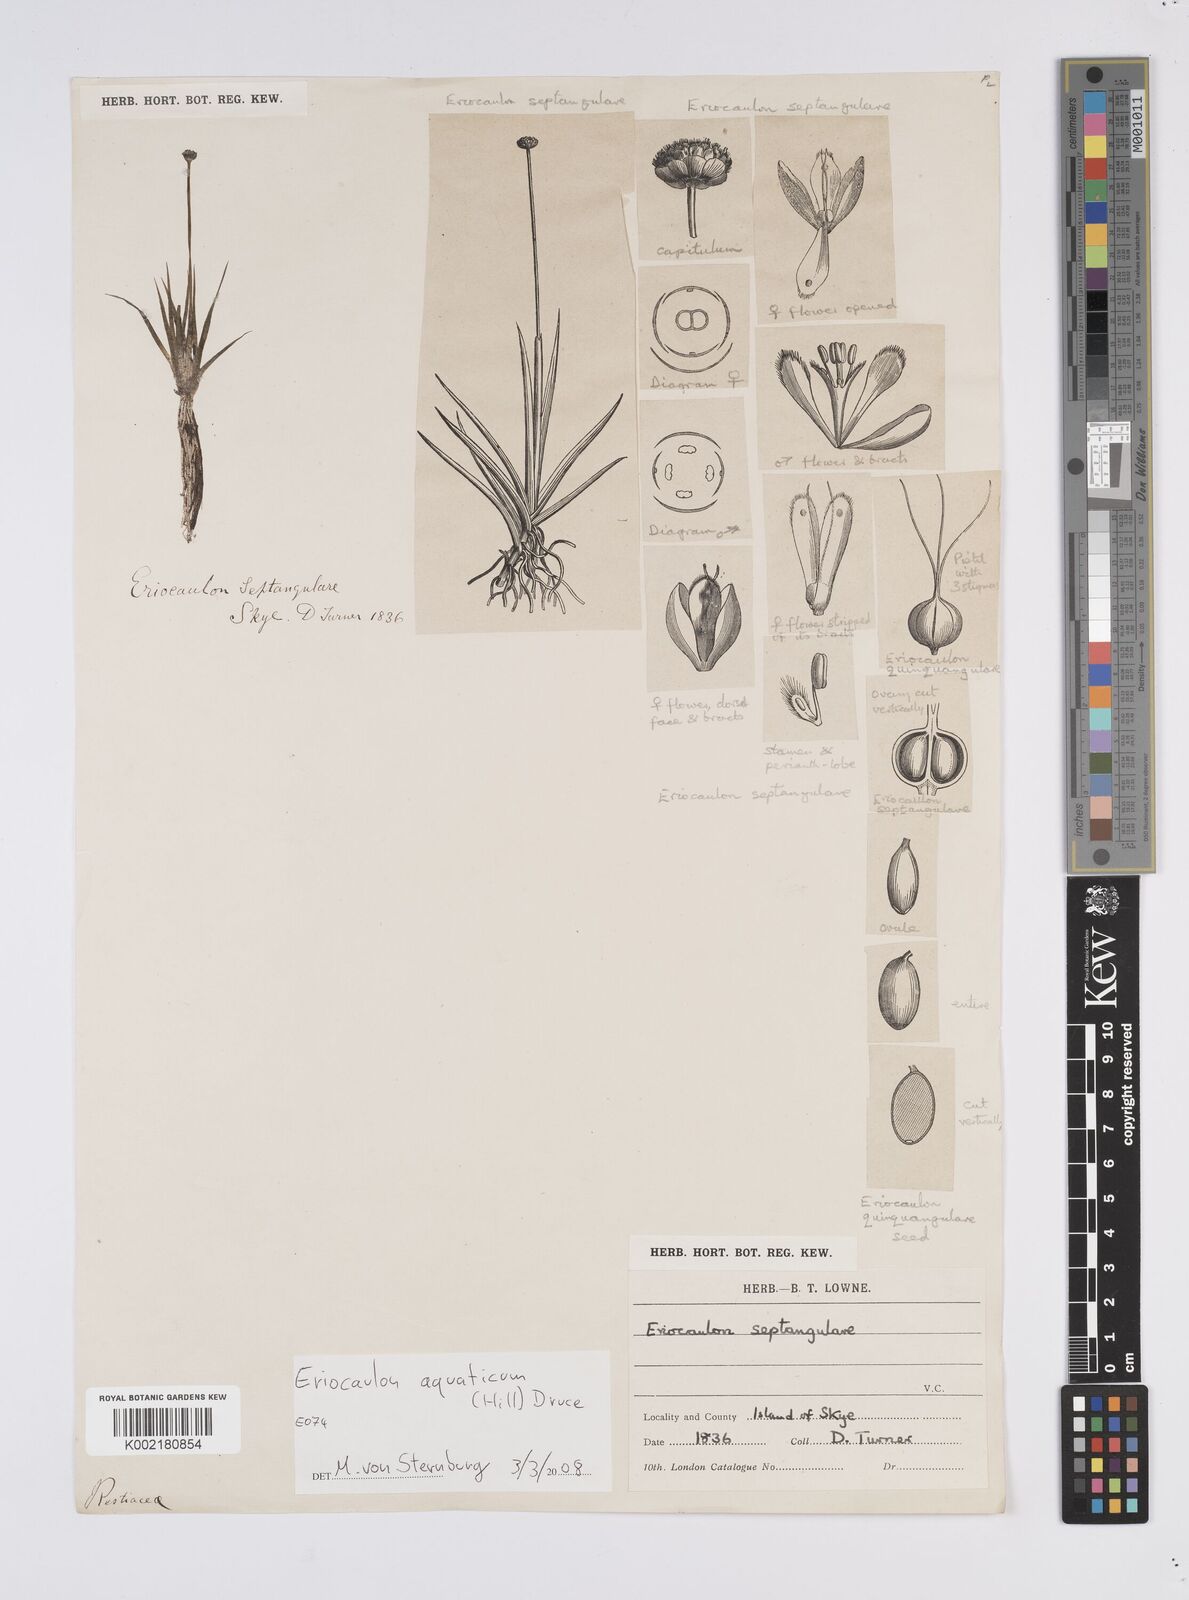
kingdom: Plantae
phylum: Tracheophyta
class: Liliopsida
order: Poales
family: Eriocaulaceae
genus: Eriocaulon
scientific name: Eriocaulon aquaticum
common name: Pipewort
